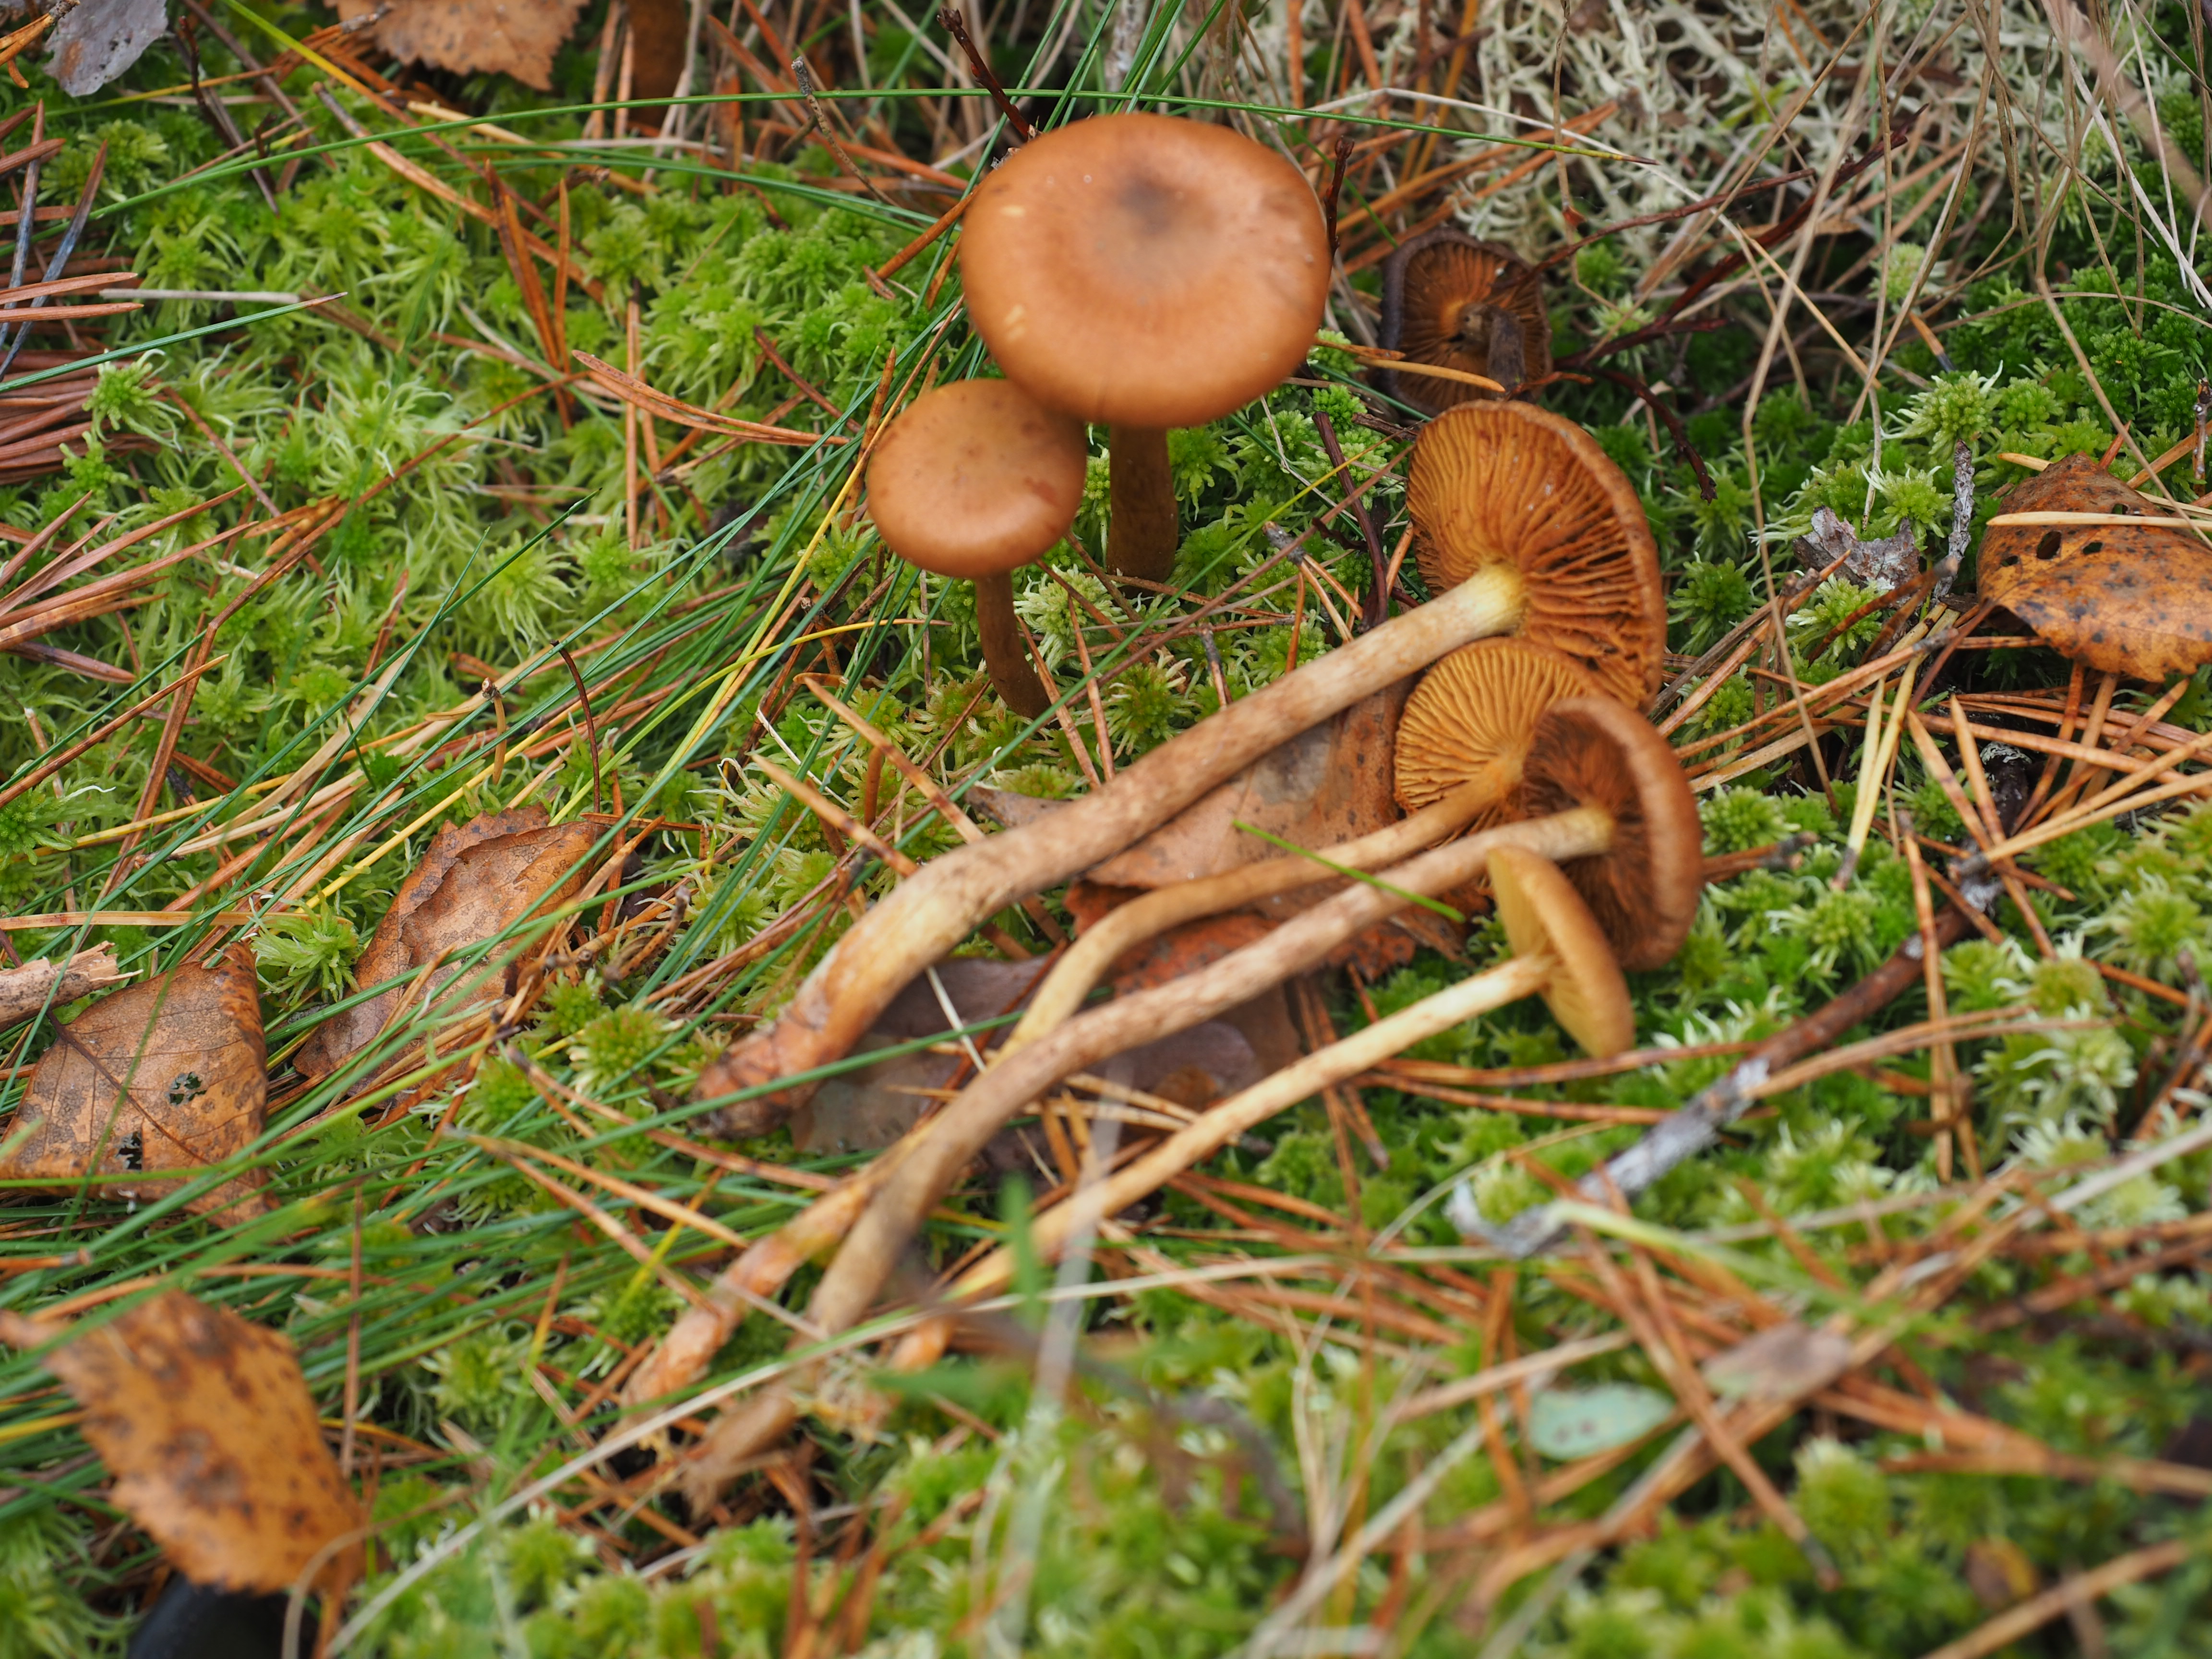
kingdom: Fungi
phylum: Basidiomycota
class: Agaricomycetes
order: Agaricales
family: Cortinariaceae
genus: Cortinarius
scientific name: Cortinarius uliginosus
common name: Marsh webcap
